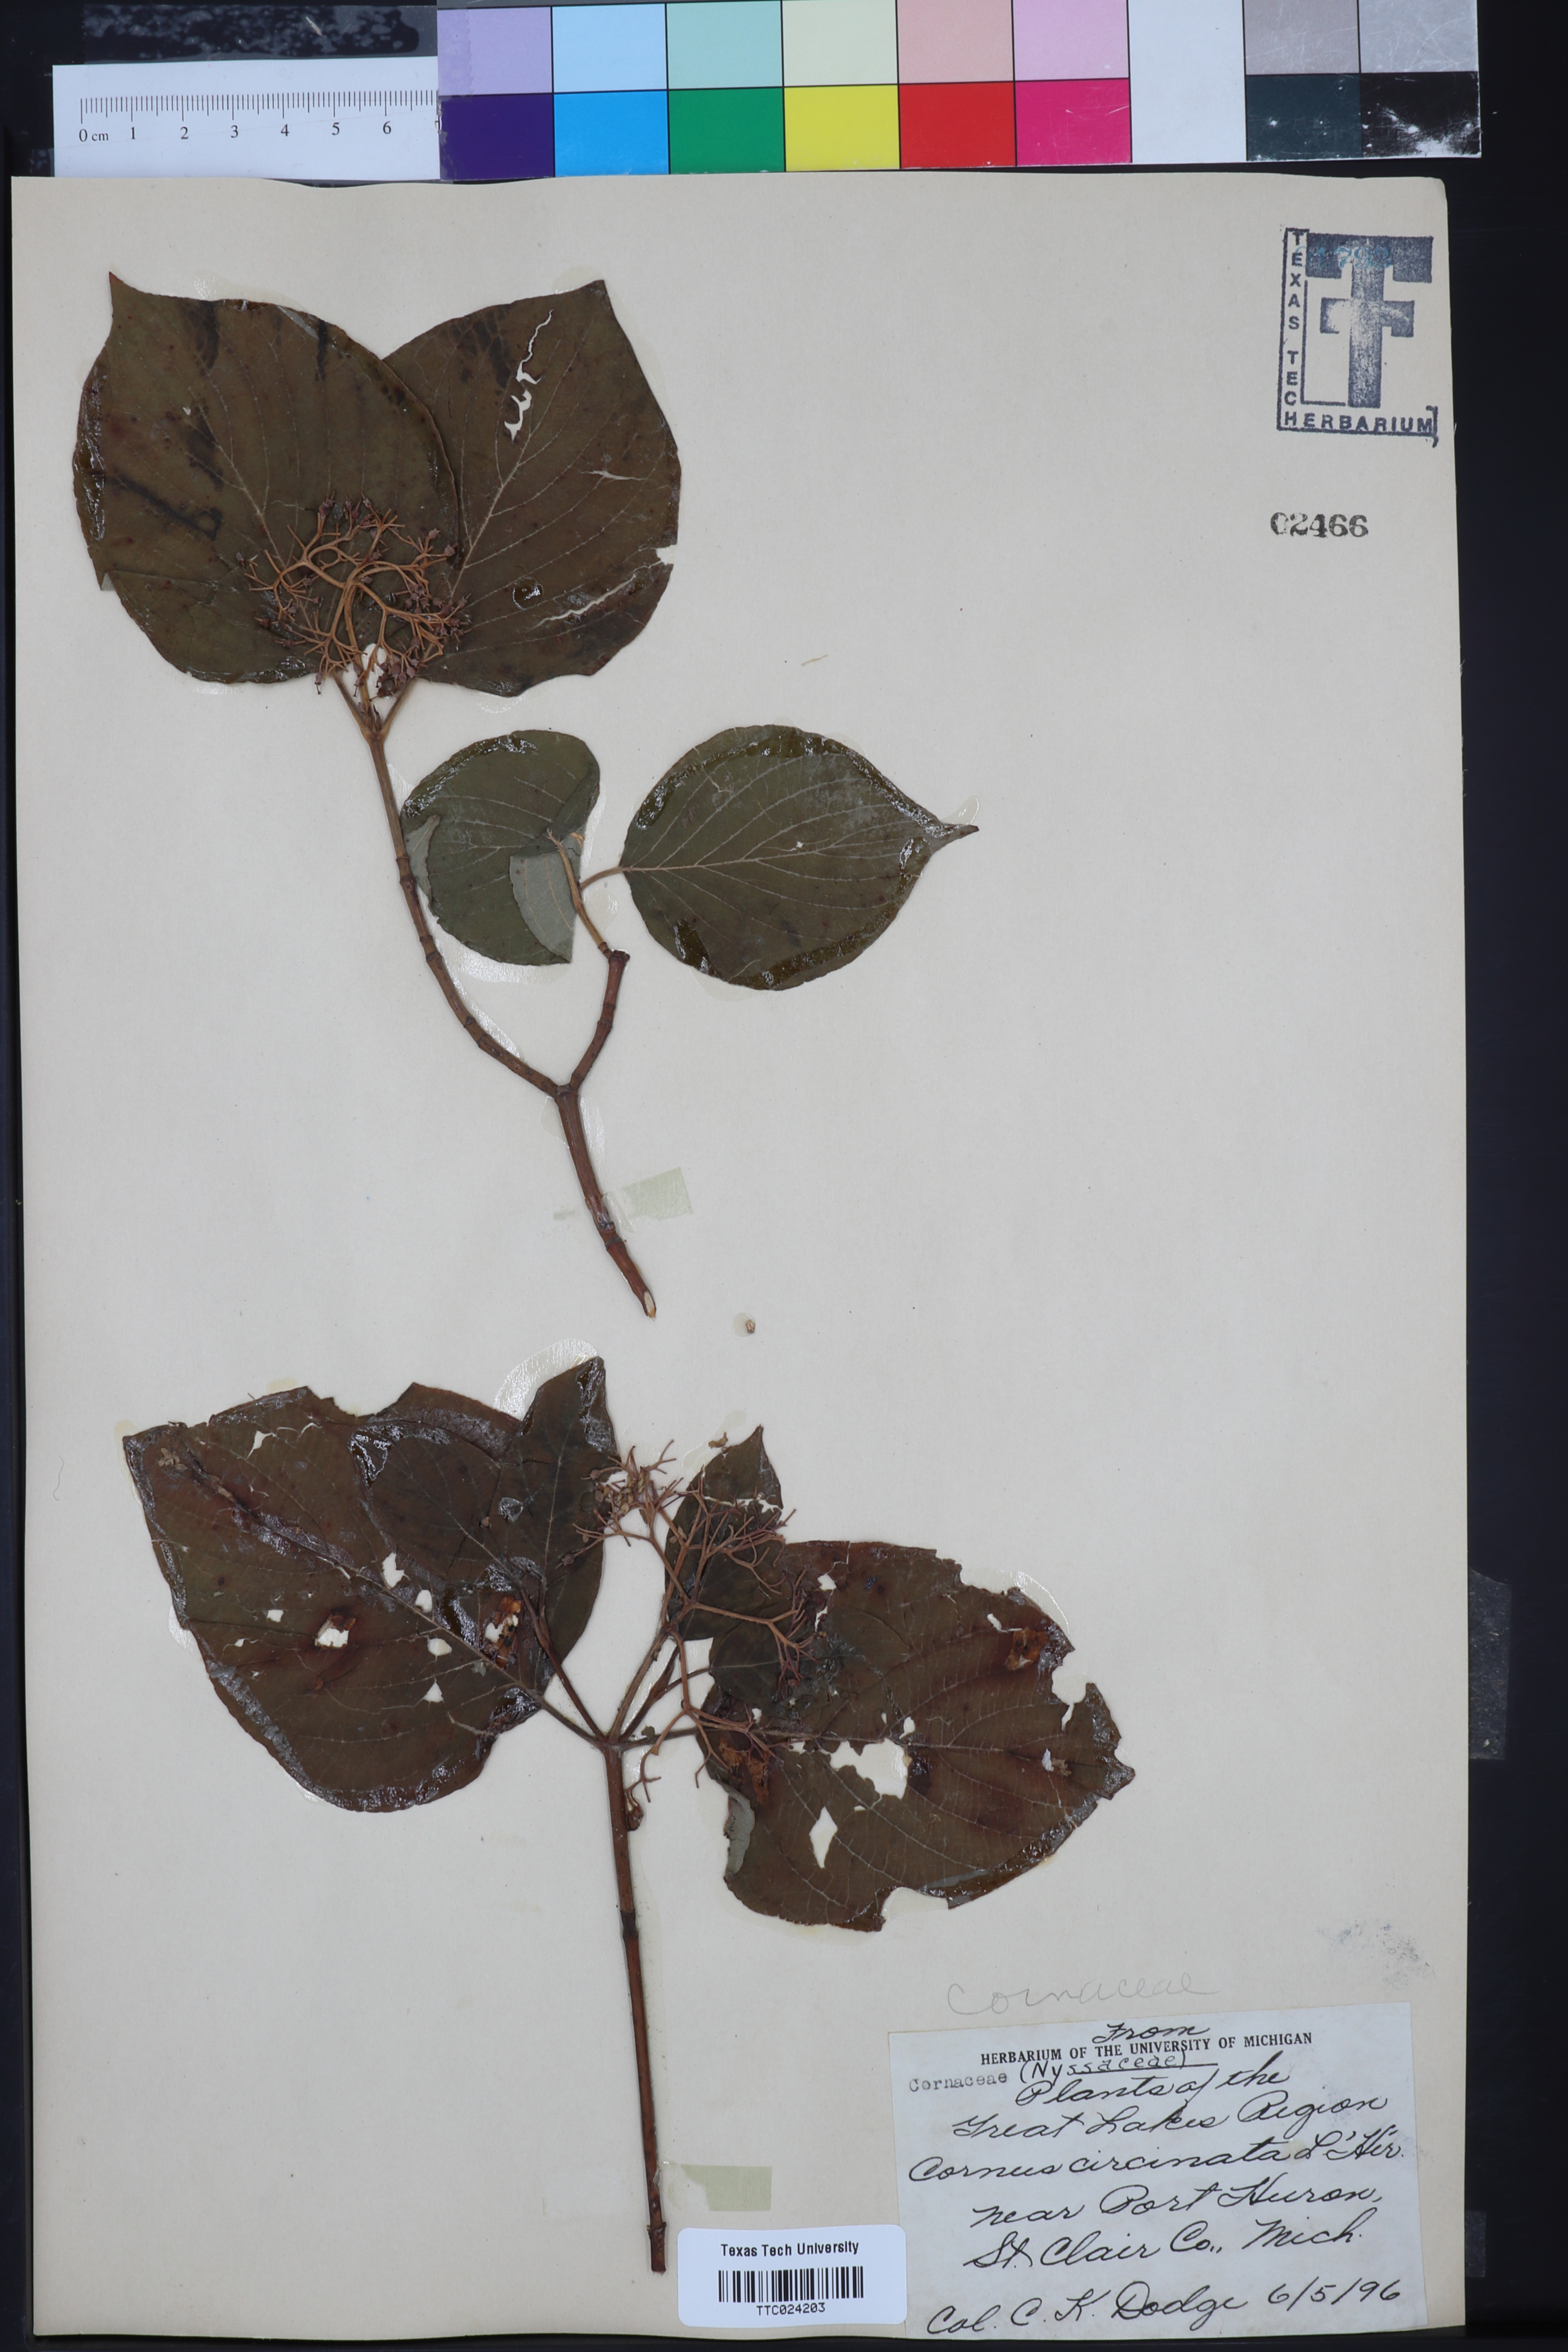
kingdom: Plantae
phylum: Tracheophyta
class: Magnoliopsida
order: Cornales
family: Cornaceae
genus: Cornus
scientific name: Cornus rugosa
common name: Round-leaf dogwood
